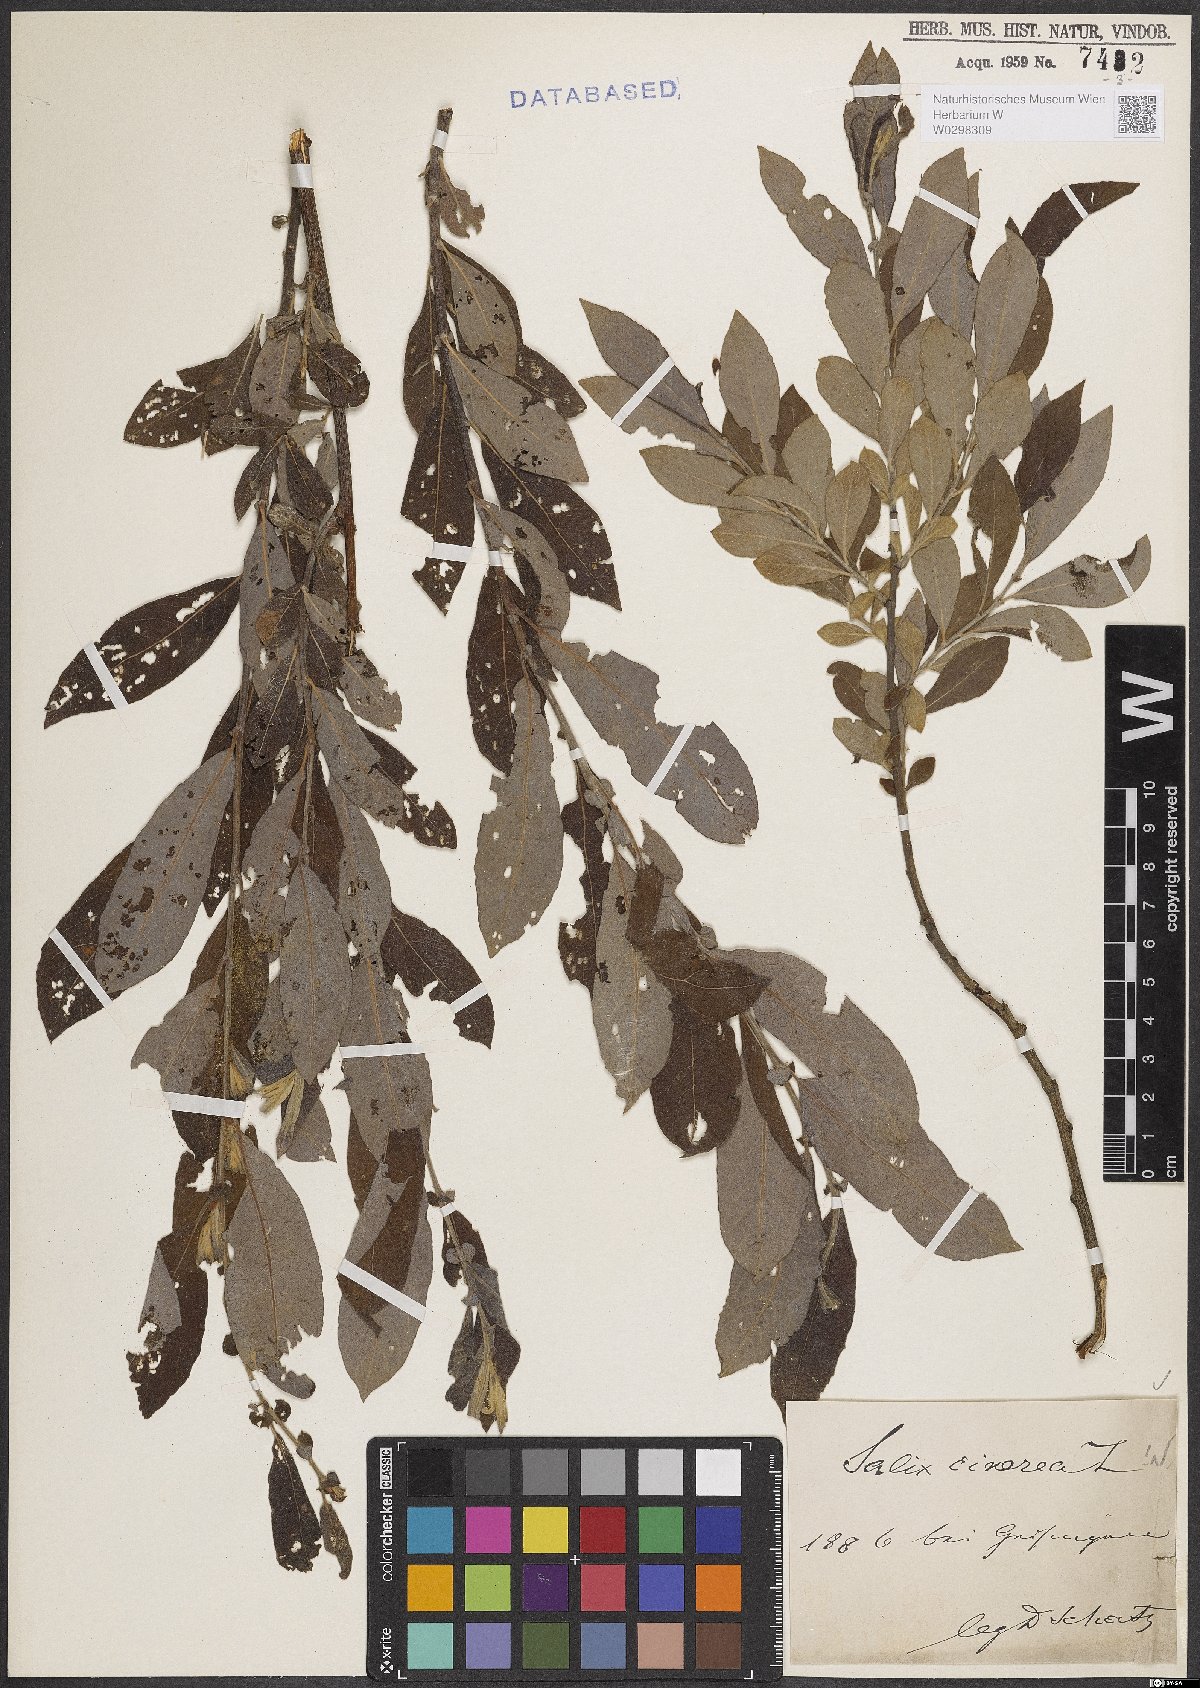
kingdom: Plantae
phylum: Tracheophyta
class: Magnoliopsida
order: Malpighiales
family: Salicaceae
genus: Salix
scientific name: Salix cinerea
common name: Common sallow
